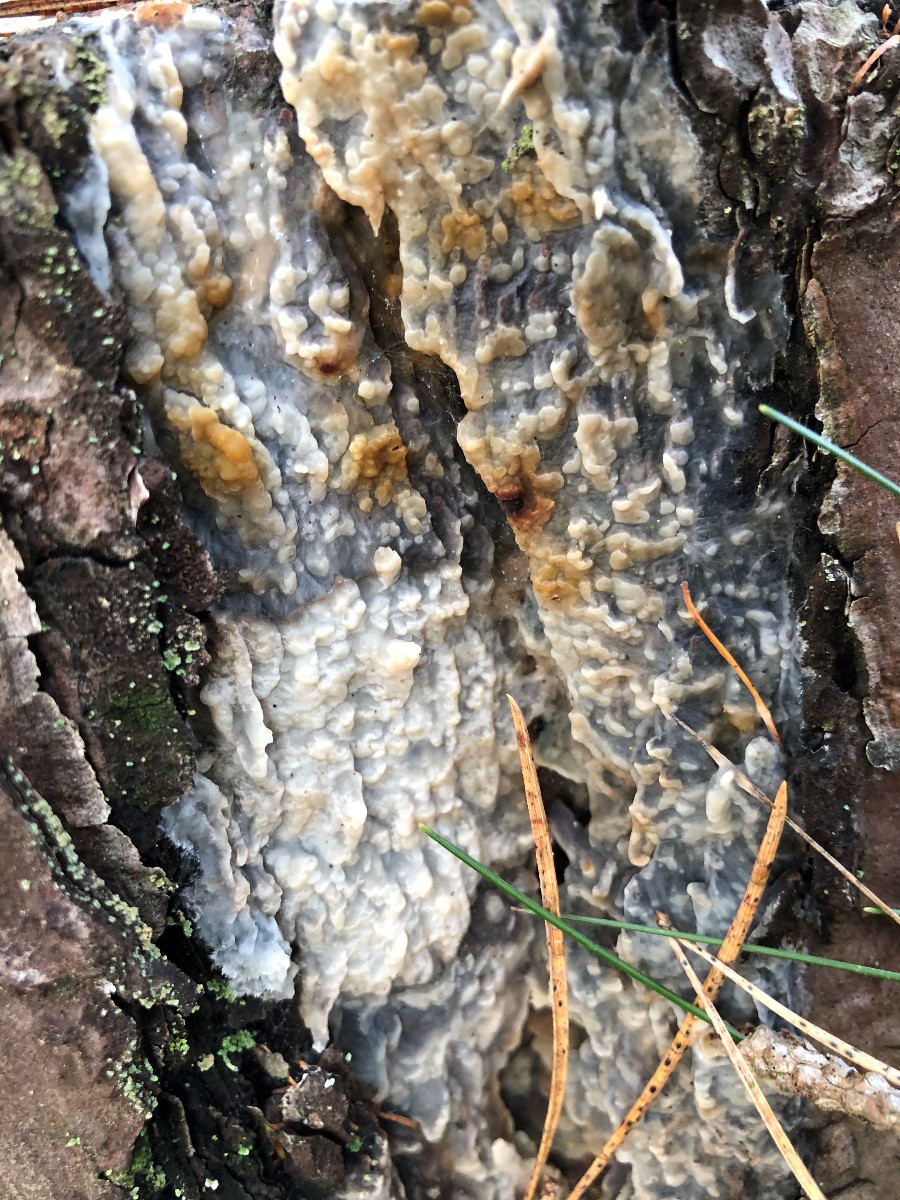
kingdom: Fungi
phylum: Basidiomycota
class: Agaricomycetes
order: Polyporales
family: Phanerochaetaceae
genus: Phlebiopsis
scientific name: Phlebiopsis gigantea
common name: kæmpebarksvamp
